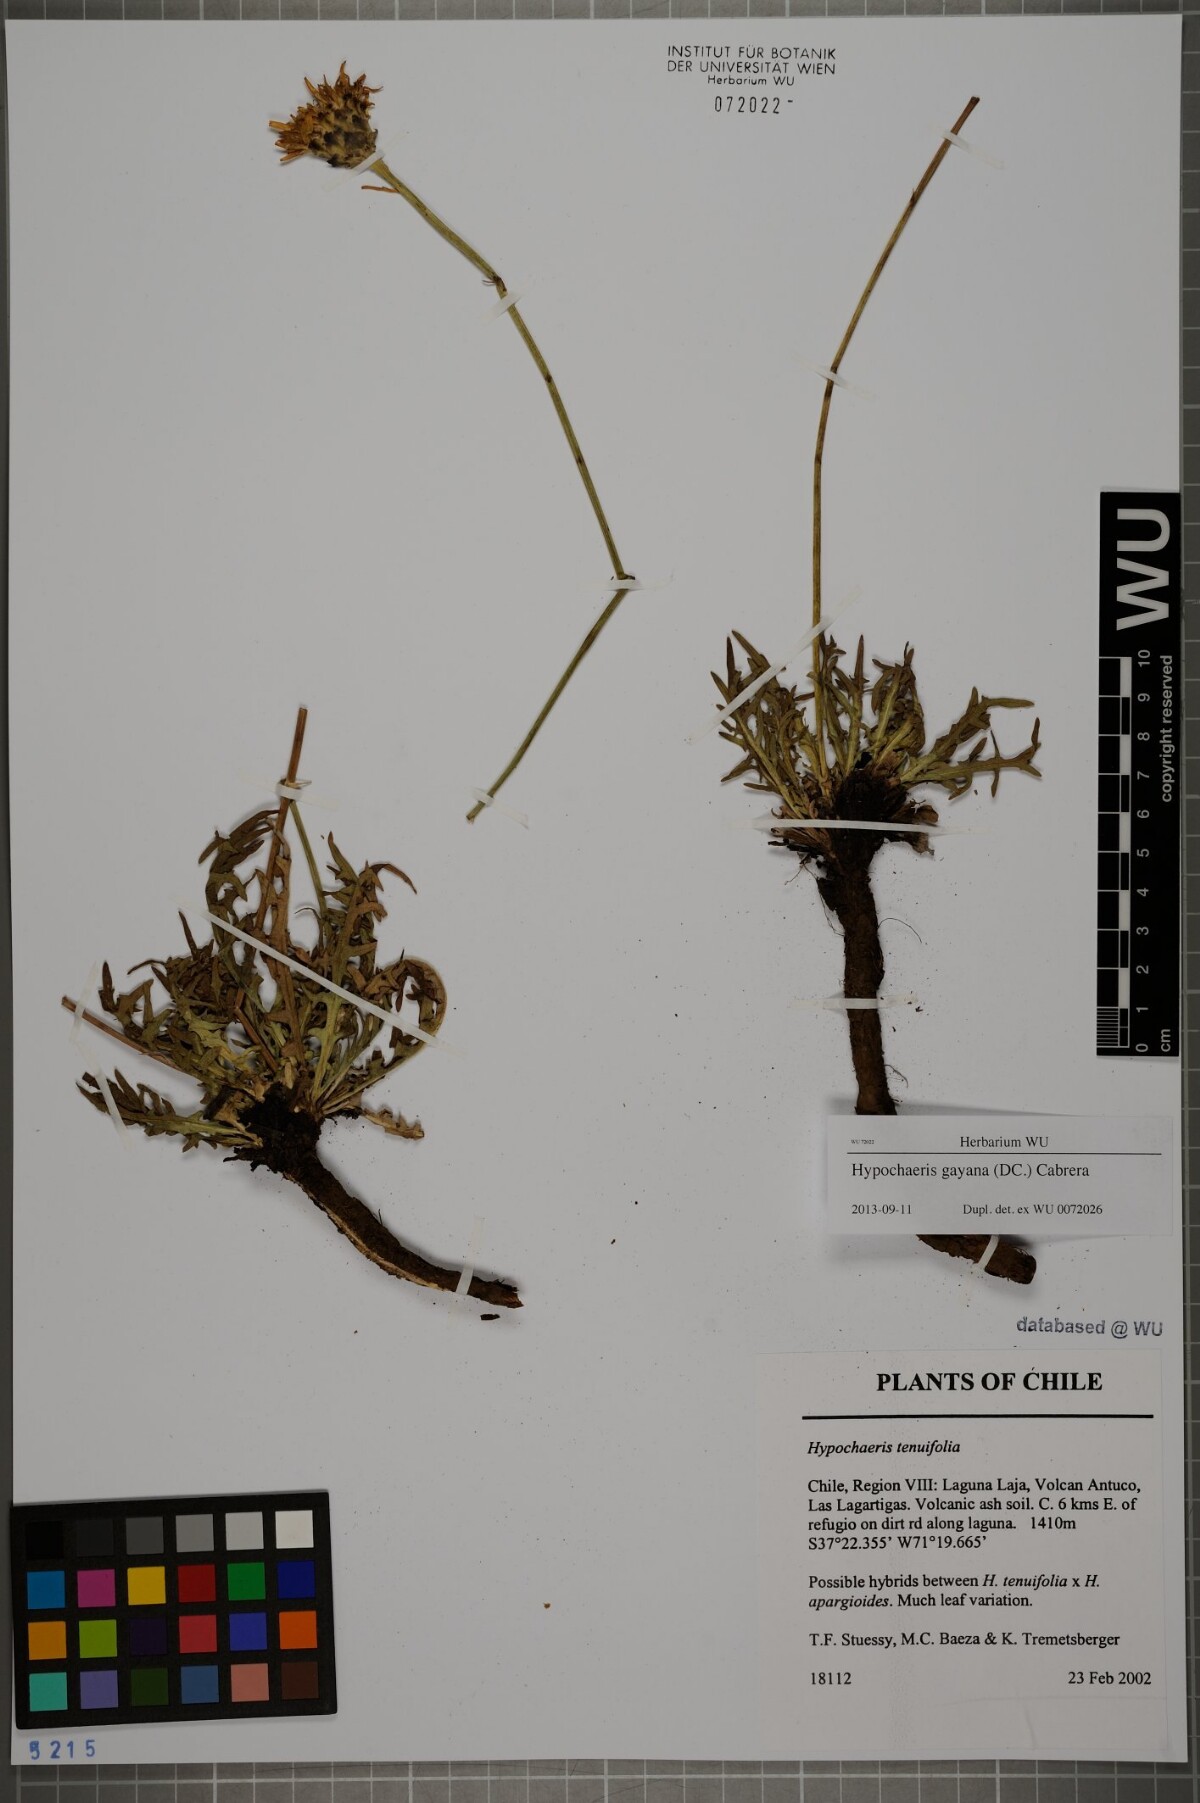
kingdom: Plantae
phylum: Tracheophyta
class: Magnoliopsida
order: Asterales
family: Asteraceae
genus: Hypochaeris
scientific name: Hypochaeris melanolepis
